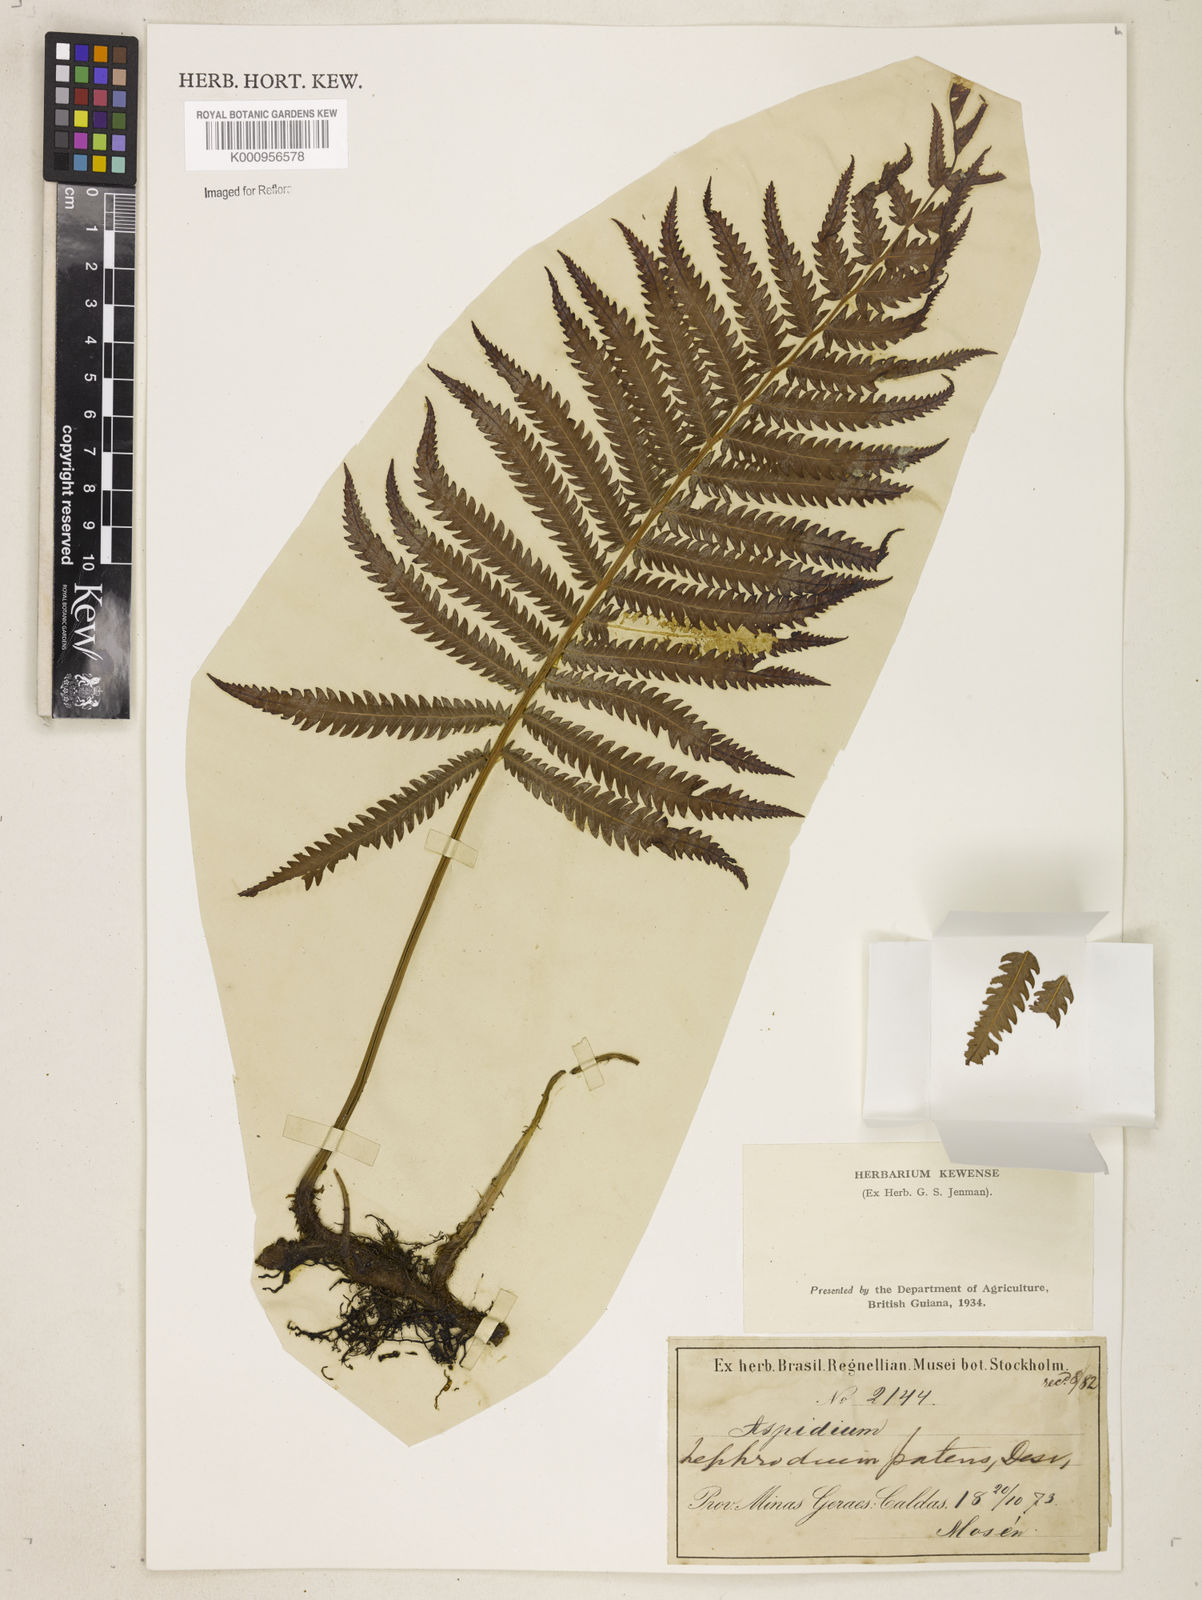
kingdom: Plantae
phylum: Tracheophyta
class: Polypodiopsida
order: Polypodiales
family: Thelypteridaceae
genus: Pelazoneuron
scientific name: Pelazoneuron patens
